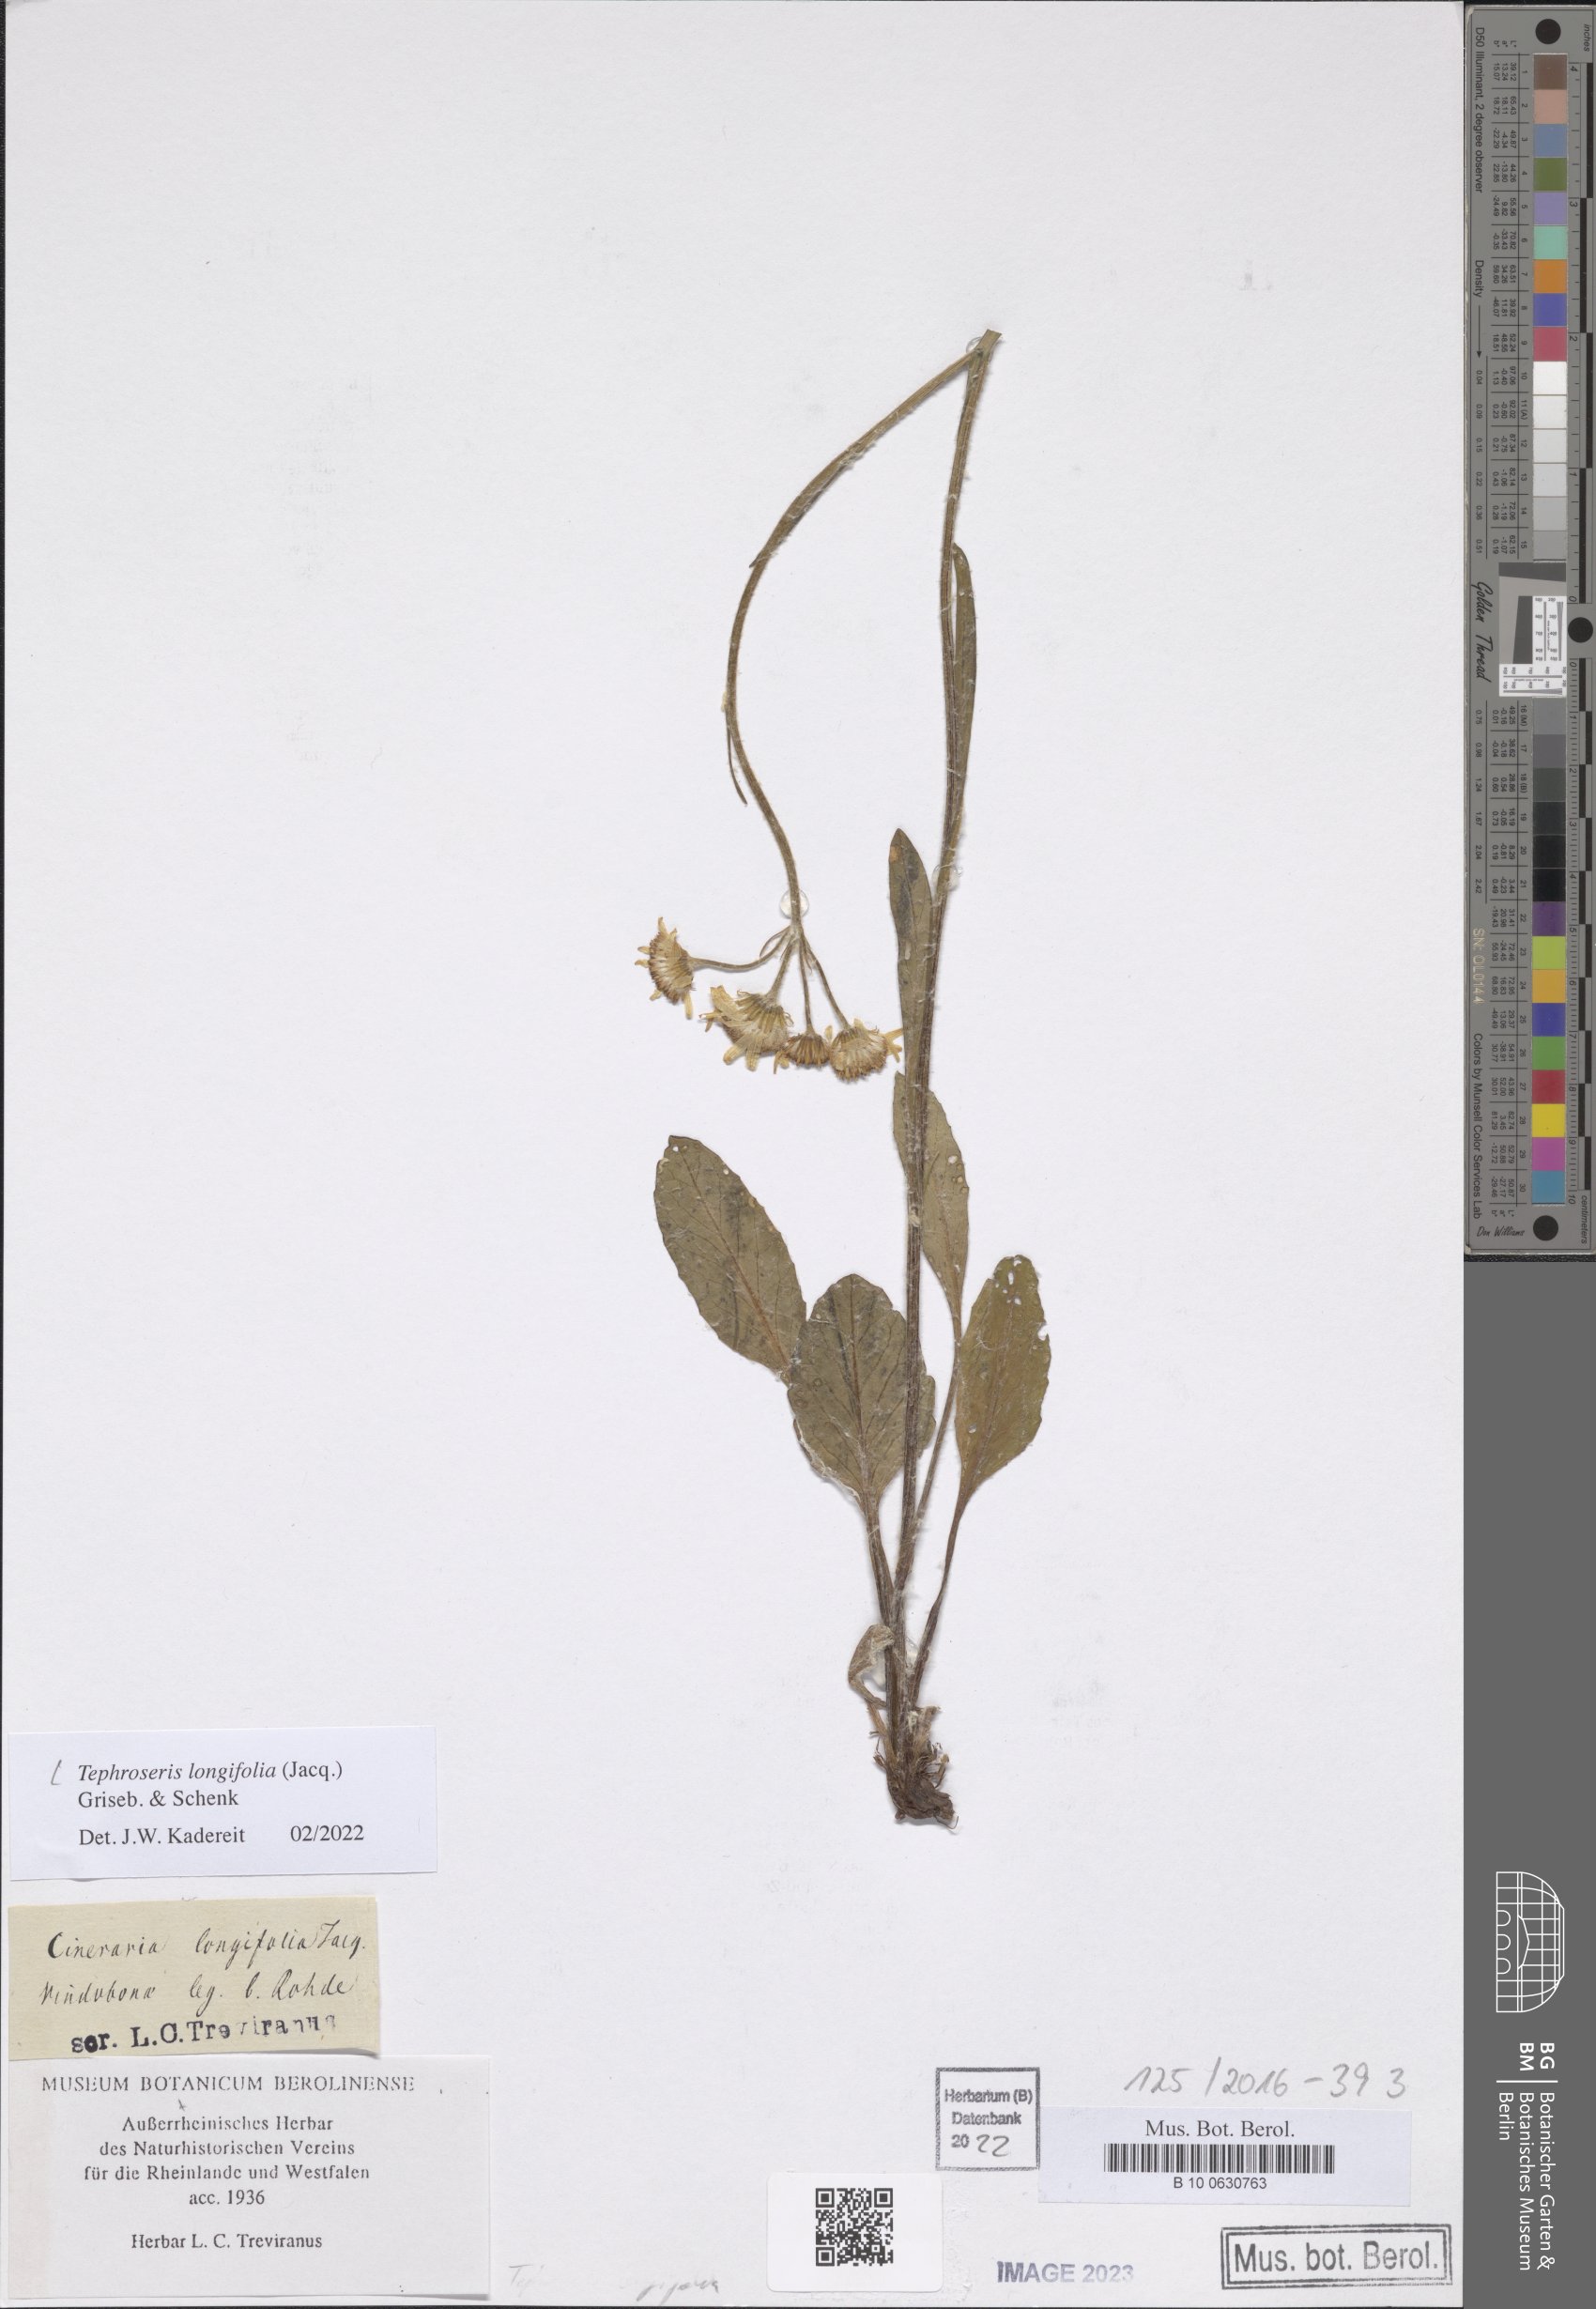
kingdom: Plantae
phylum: Tracheophyta
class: Magnoliopsida
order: Asterales
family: Asteraceae
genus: Tephroseris
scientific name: Tephroseris longifolia
